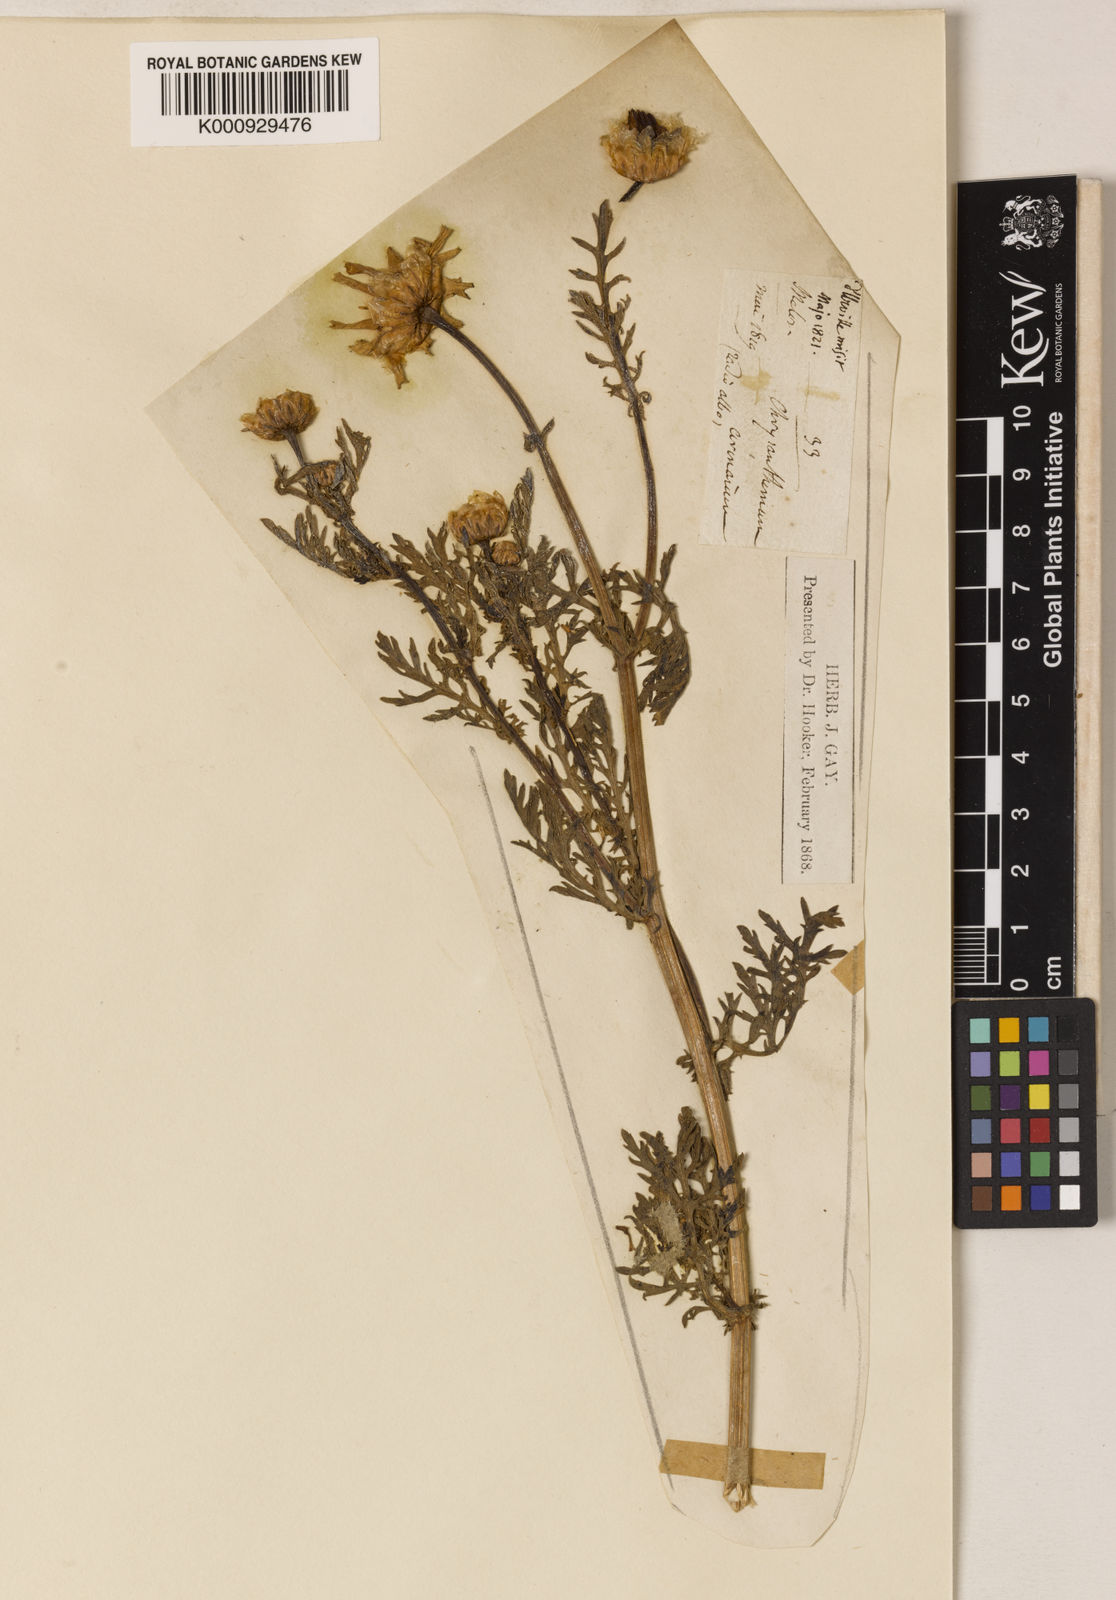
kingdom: Plantae
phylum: Tracheophyta
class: Magnoliopsida
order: Asterales
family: Asteraceae
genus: Glebionis
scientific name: Glebionis coronaria
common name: Crowndaisy
